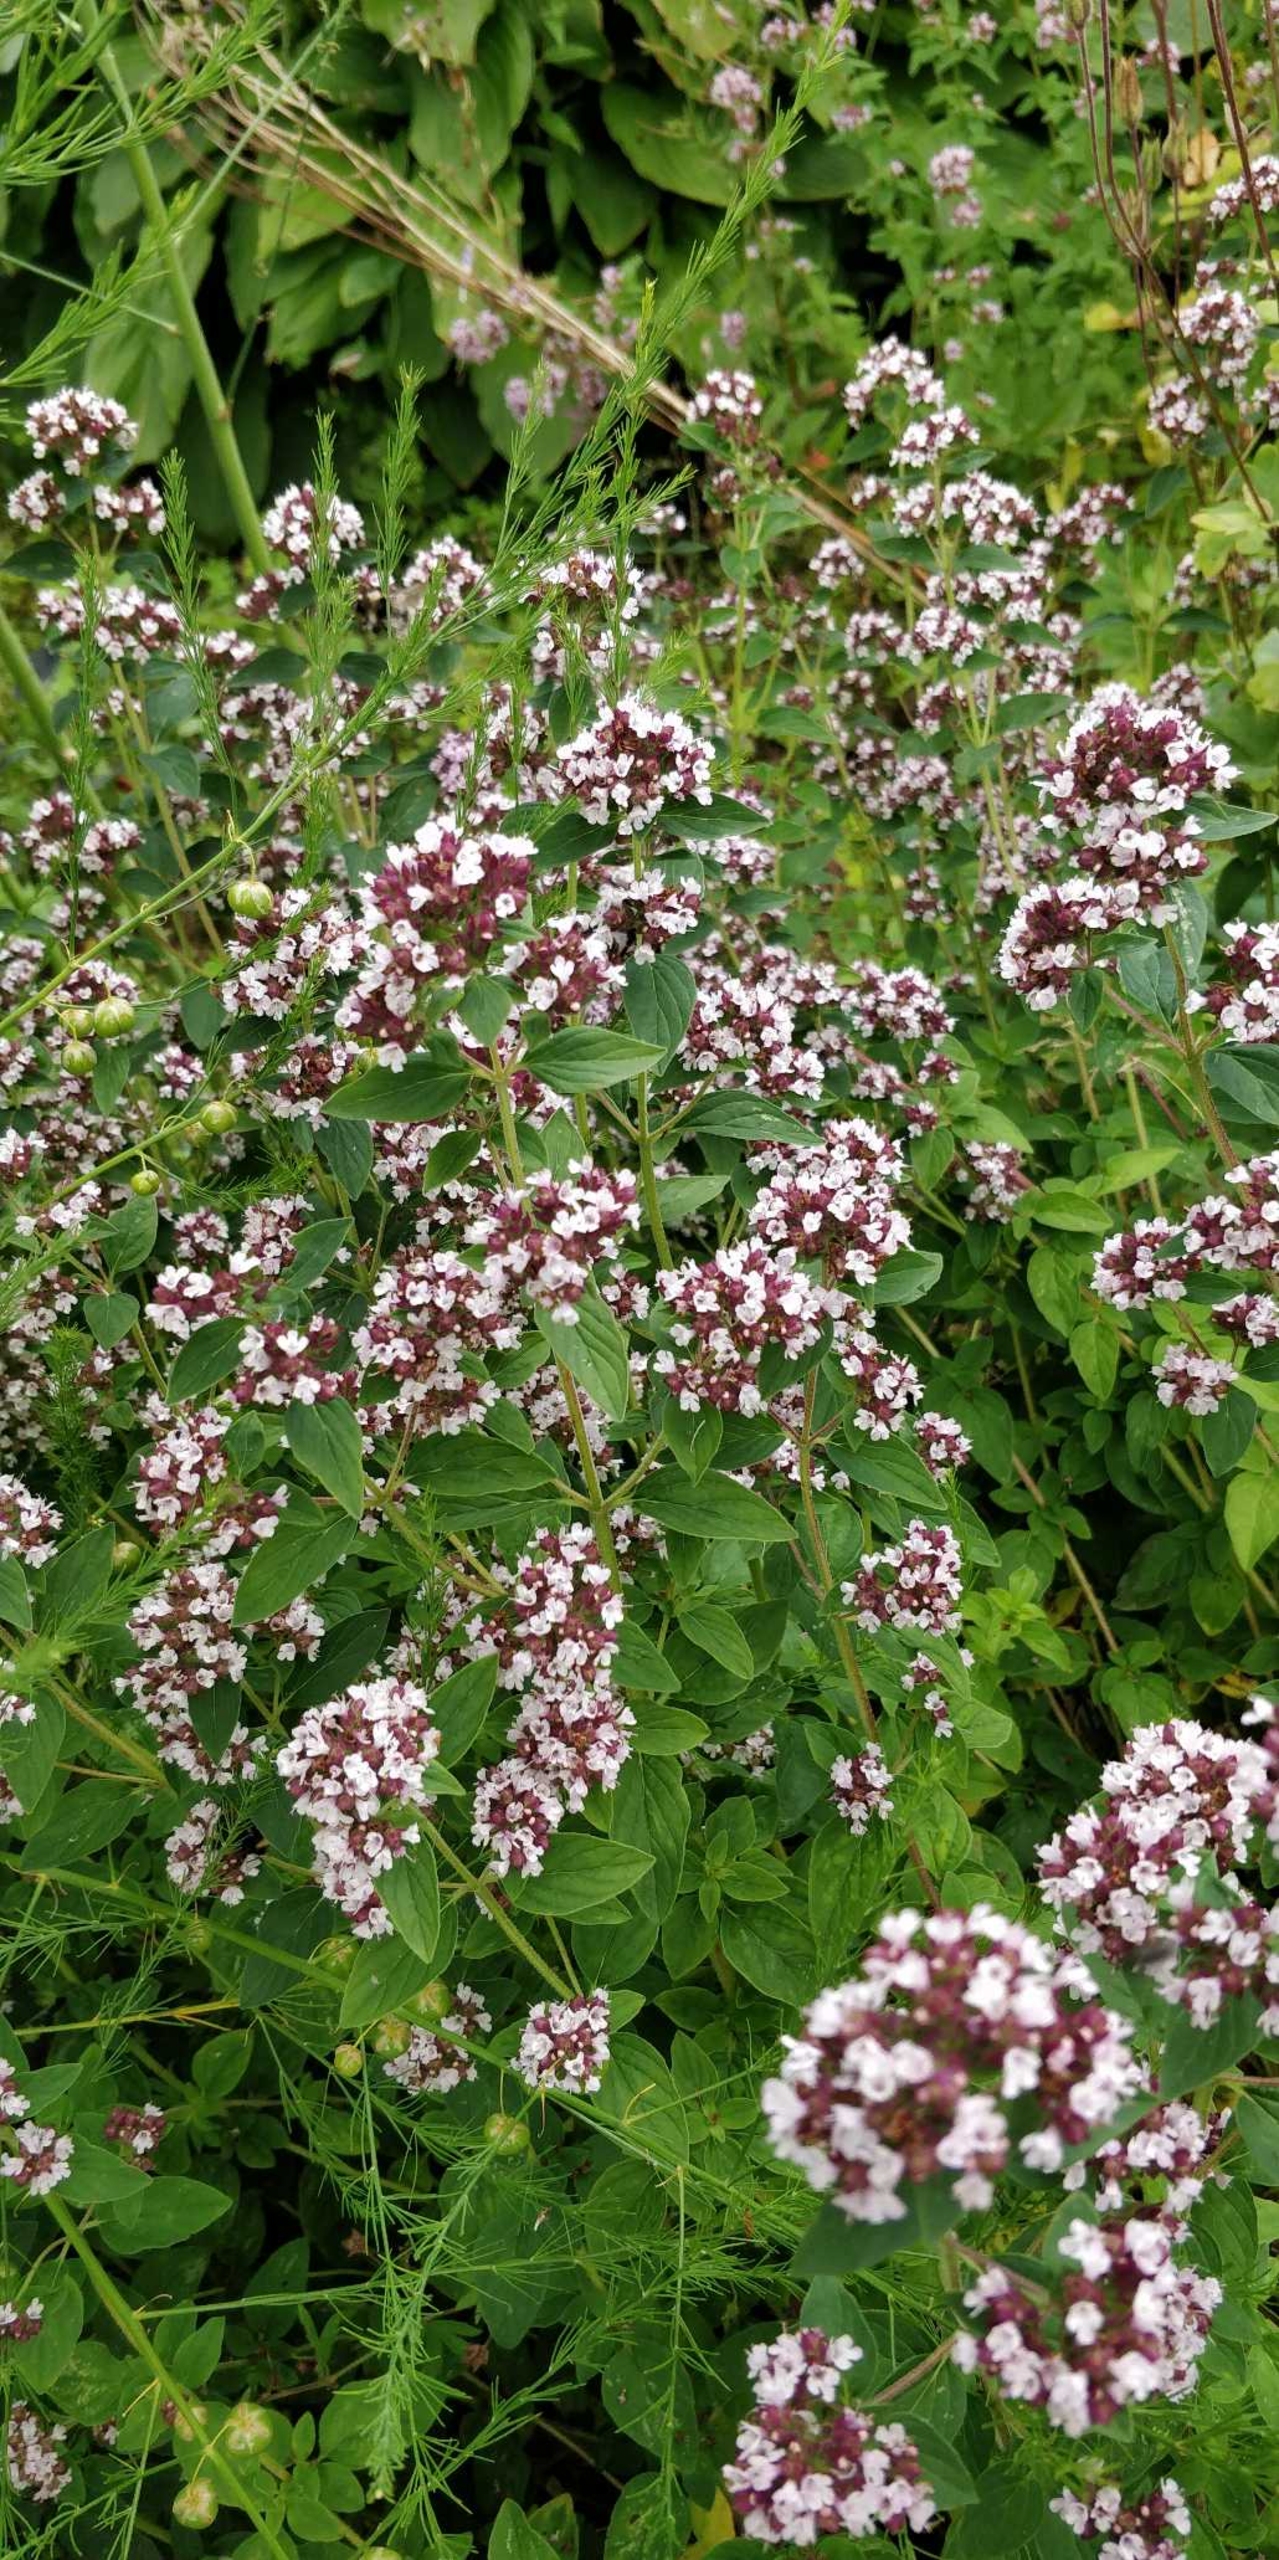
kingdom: Plantae
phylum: Tracheophyta
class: Magnoliopsida
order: Lamiales
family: Lamiaceae
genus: Origanum
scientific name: Origanum vulgare
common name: Merian
